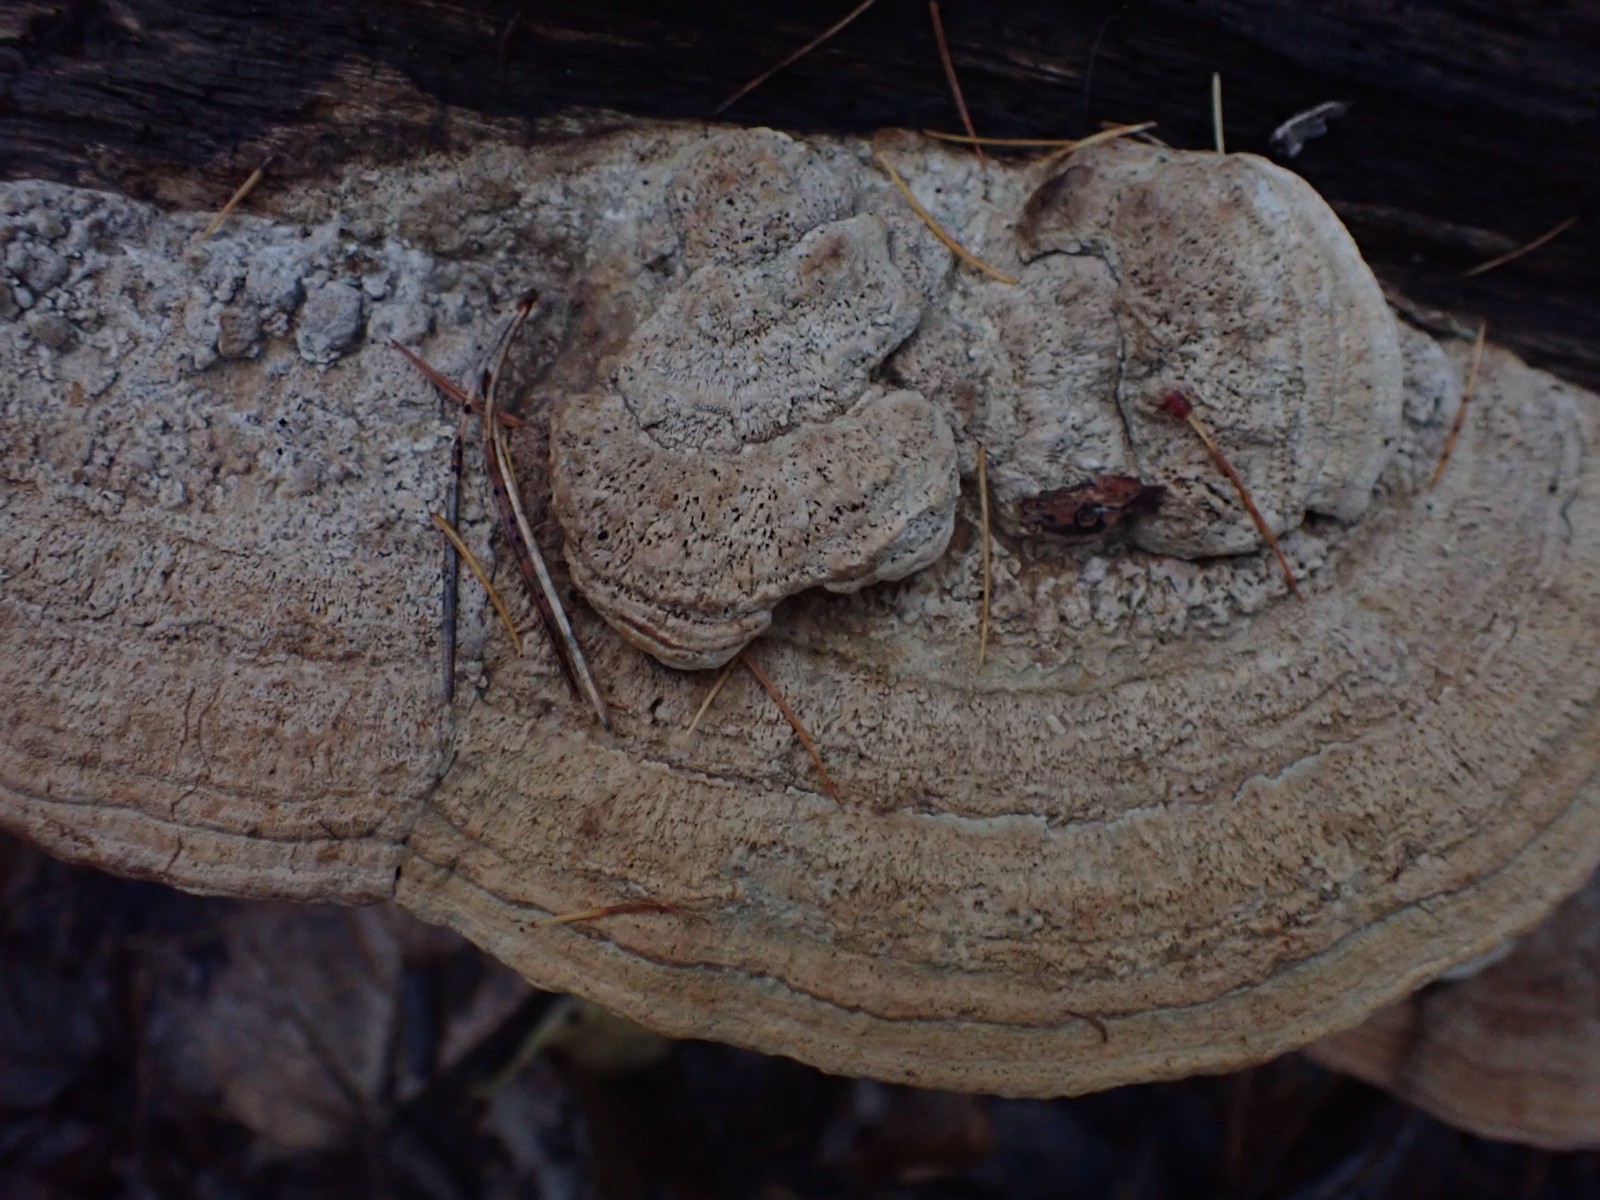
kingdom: Fungi
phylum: Basidiomycota
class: Agaricomycetes
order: Polyporales
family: Fomitopsidaceae
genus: Daedalea
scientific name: Daedalea quercina
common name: ege-labyrintsvamp
